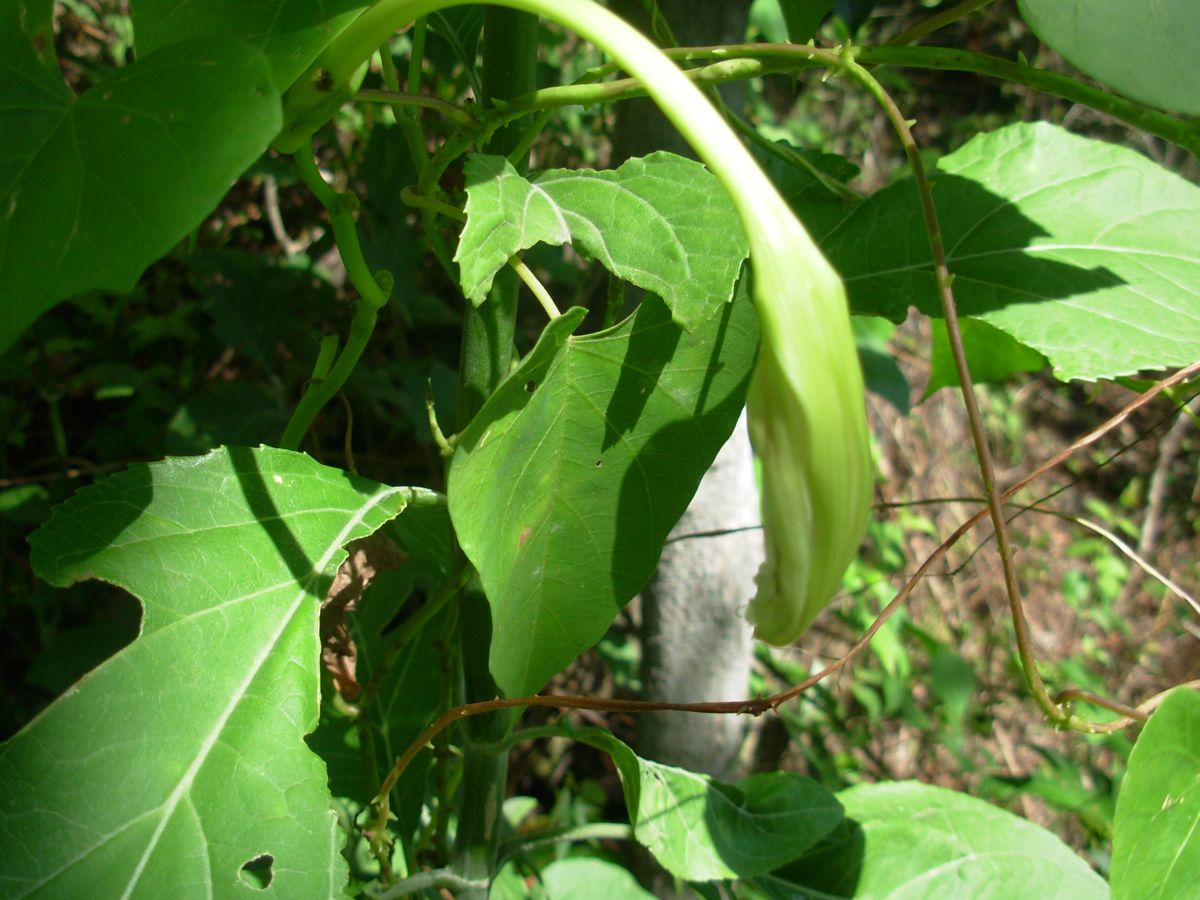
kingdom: Plantae
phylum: Tracheophyta
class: Magnoliopsida
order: Solanales
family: Convolvulaceae
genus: Ipomoea
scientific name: Ipomoea santillanii
